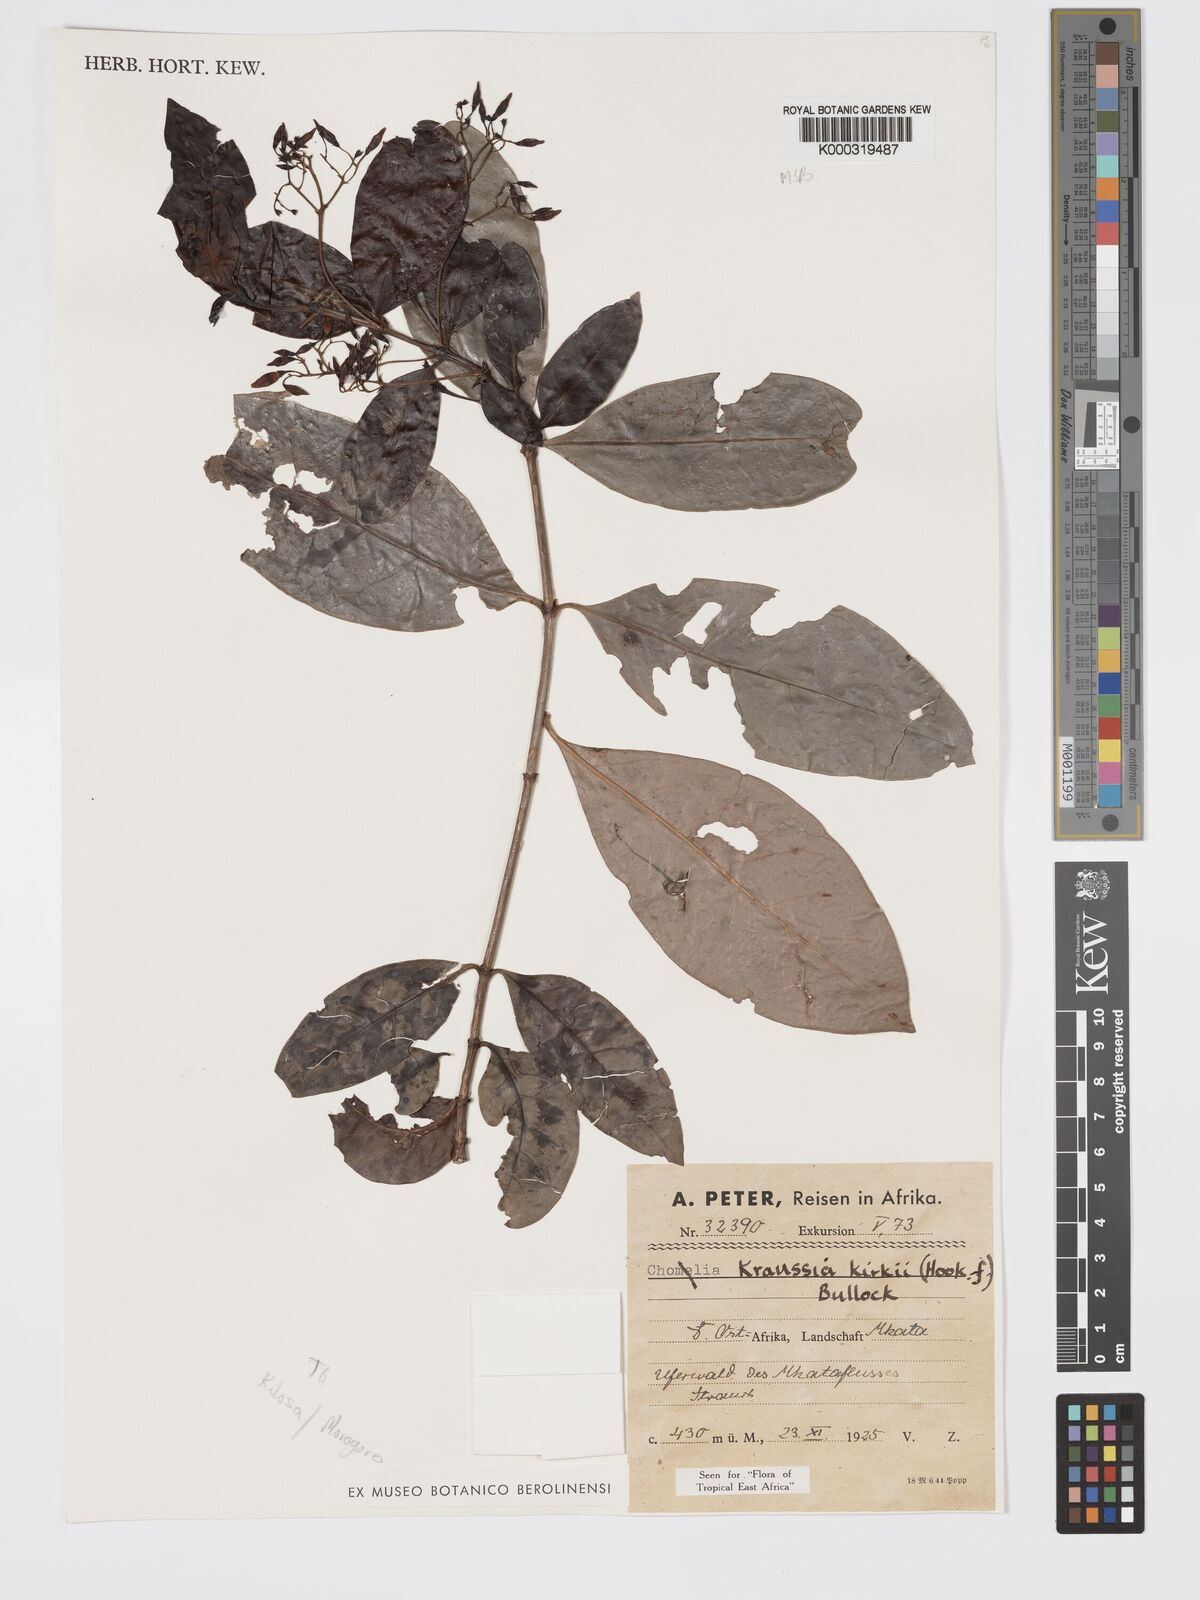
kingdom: Plantae
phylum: Tracheophyta
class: Magnoliopsida
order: Gentianales
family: Rubiaceae
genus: Kraussia
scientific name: Kraussia kirkii
